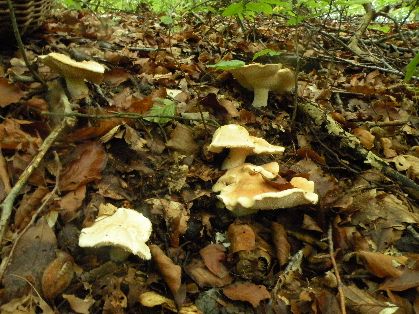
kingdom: Fungi
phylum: Basidiomycota
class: Agaricomycetes
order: Cantharellales
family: Hydnaceae
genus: Hydnum
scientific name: Hydnum repandum
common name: almindelig pigsvamp
